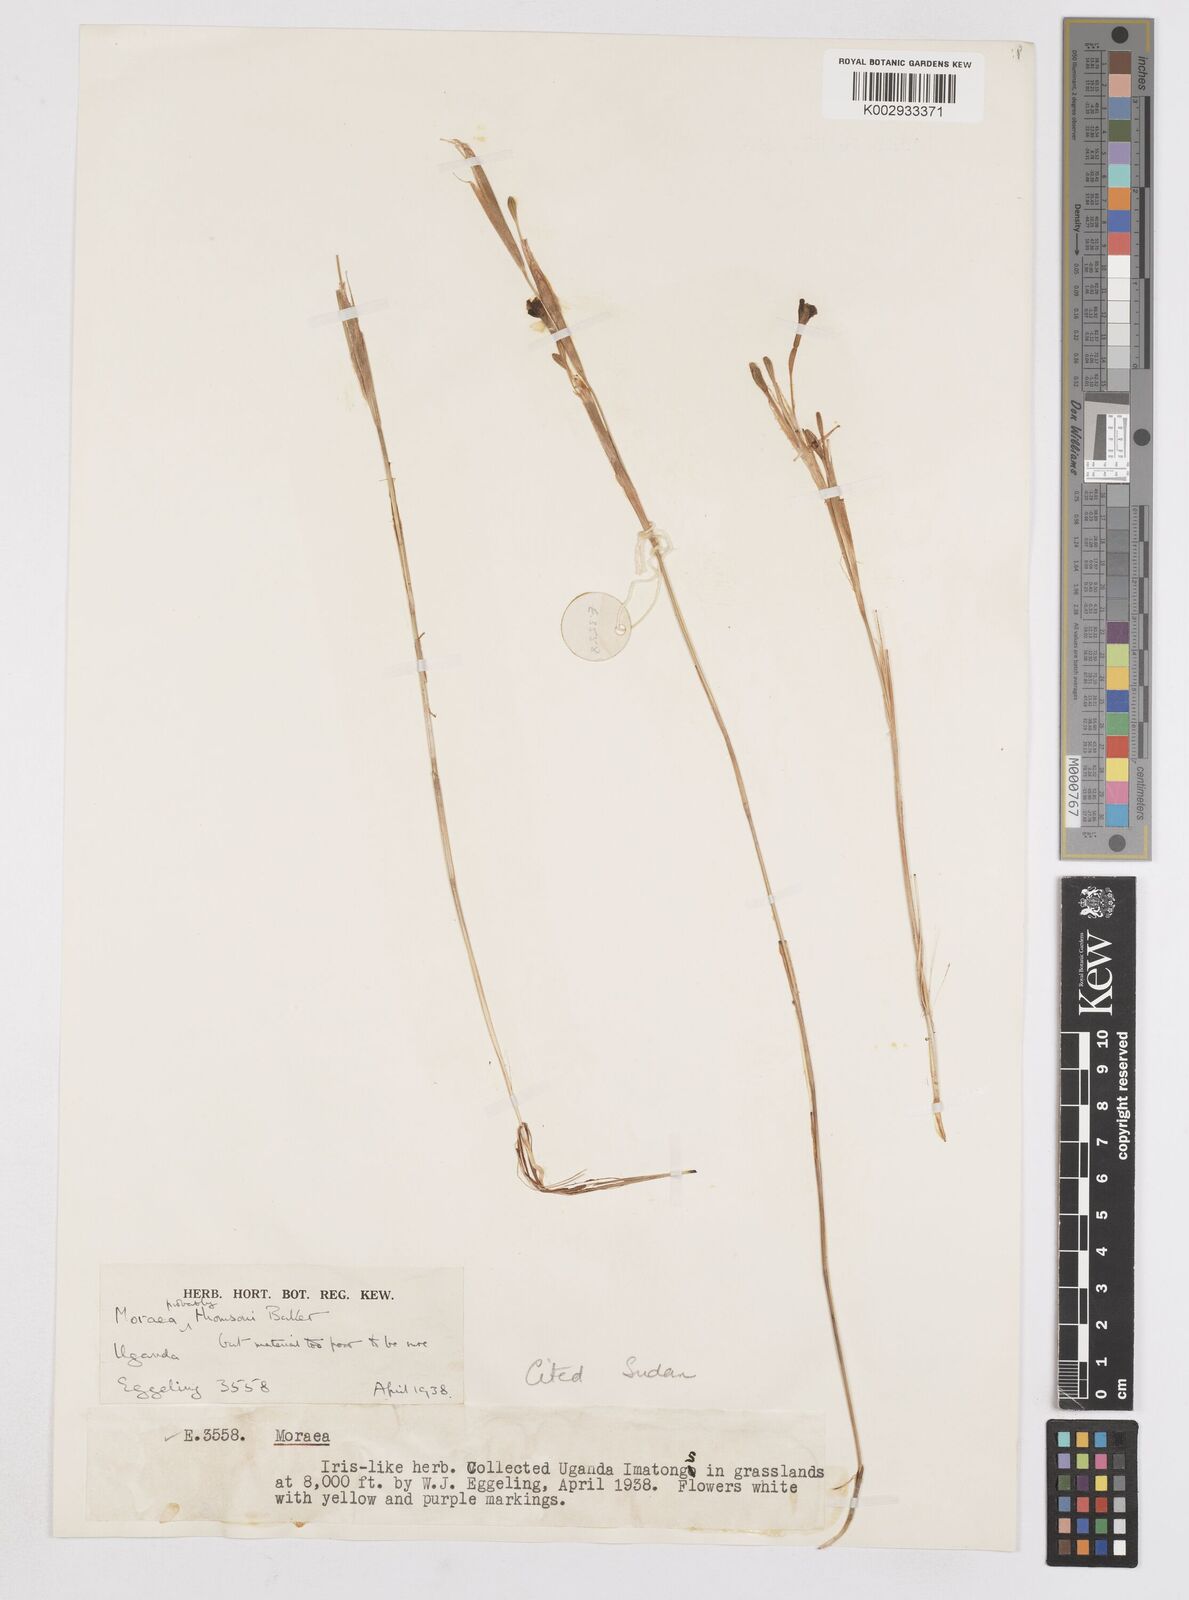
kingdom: Plantae
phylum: Tracheophyta
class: Liliopsida
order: Asparagales
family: Iridaceae
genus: Moraea
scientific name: Moraea thomsonii
